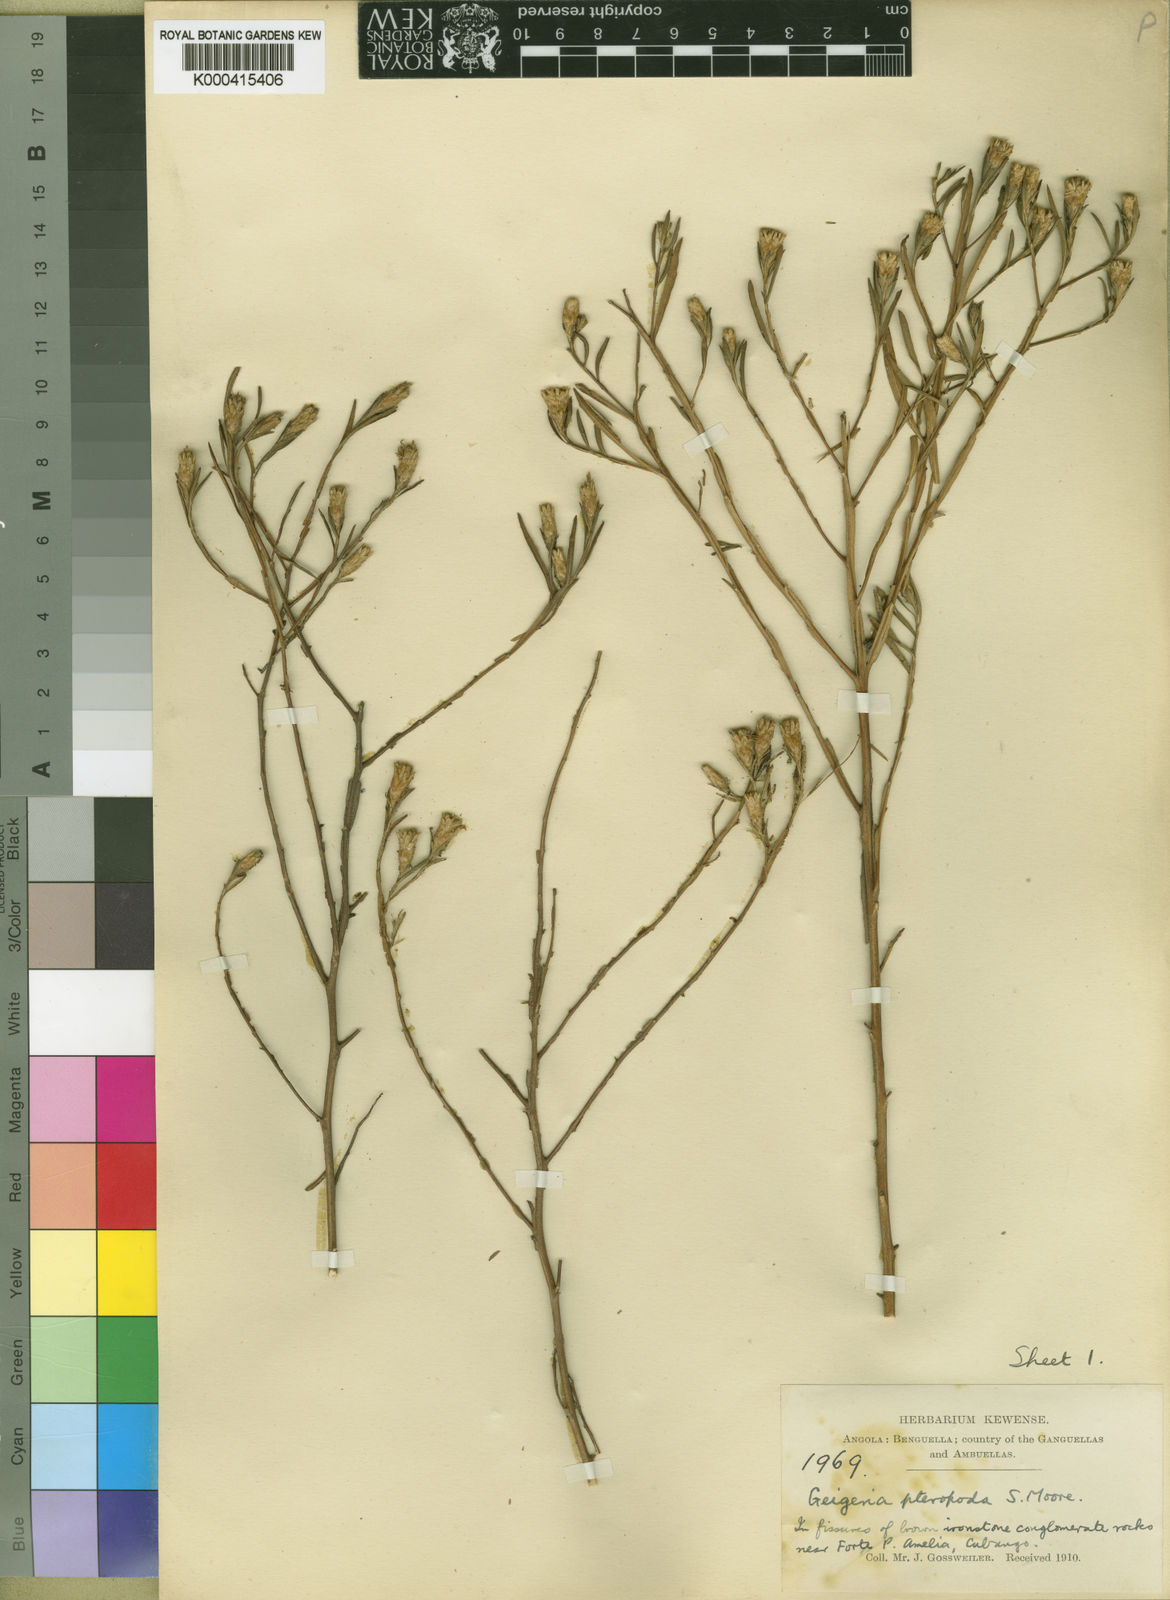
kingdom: Plantae
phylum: Tracheophyta
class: Magnoliopsida
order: Asterales
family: Asteraceae
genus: Geigeria
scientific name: Geigeria angolensis
